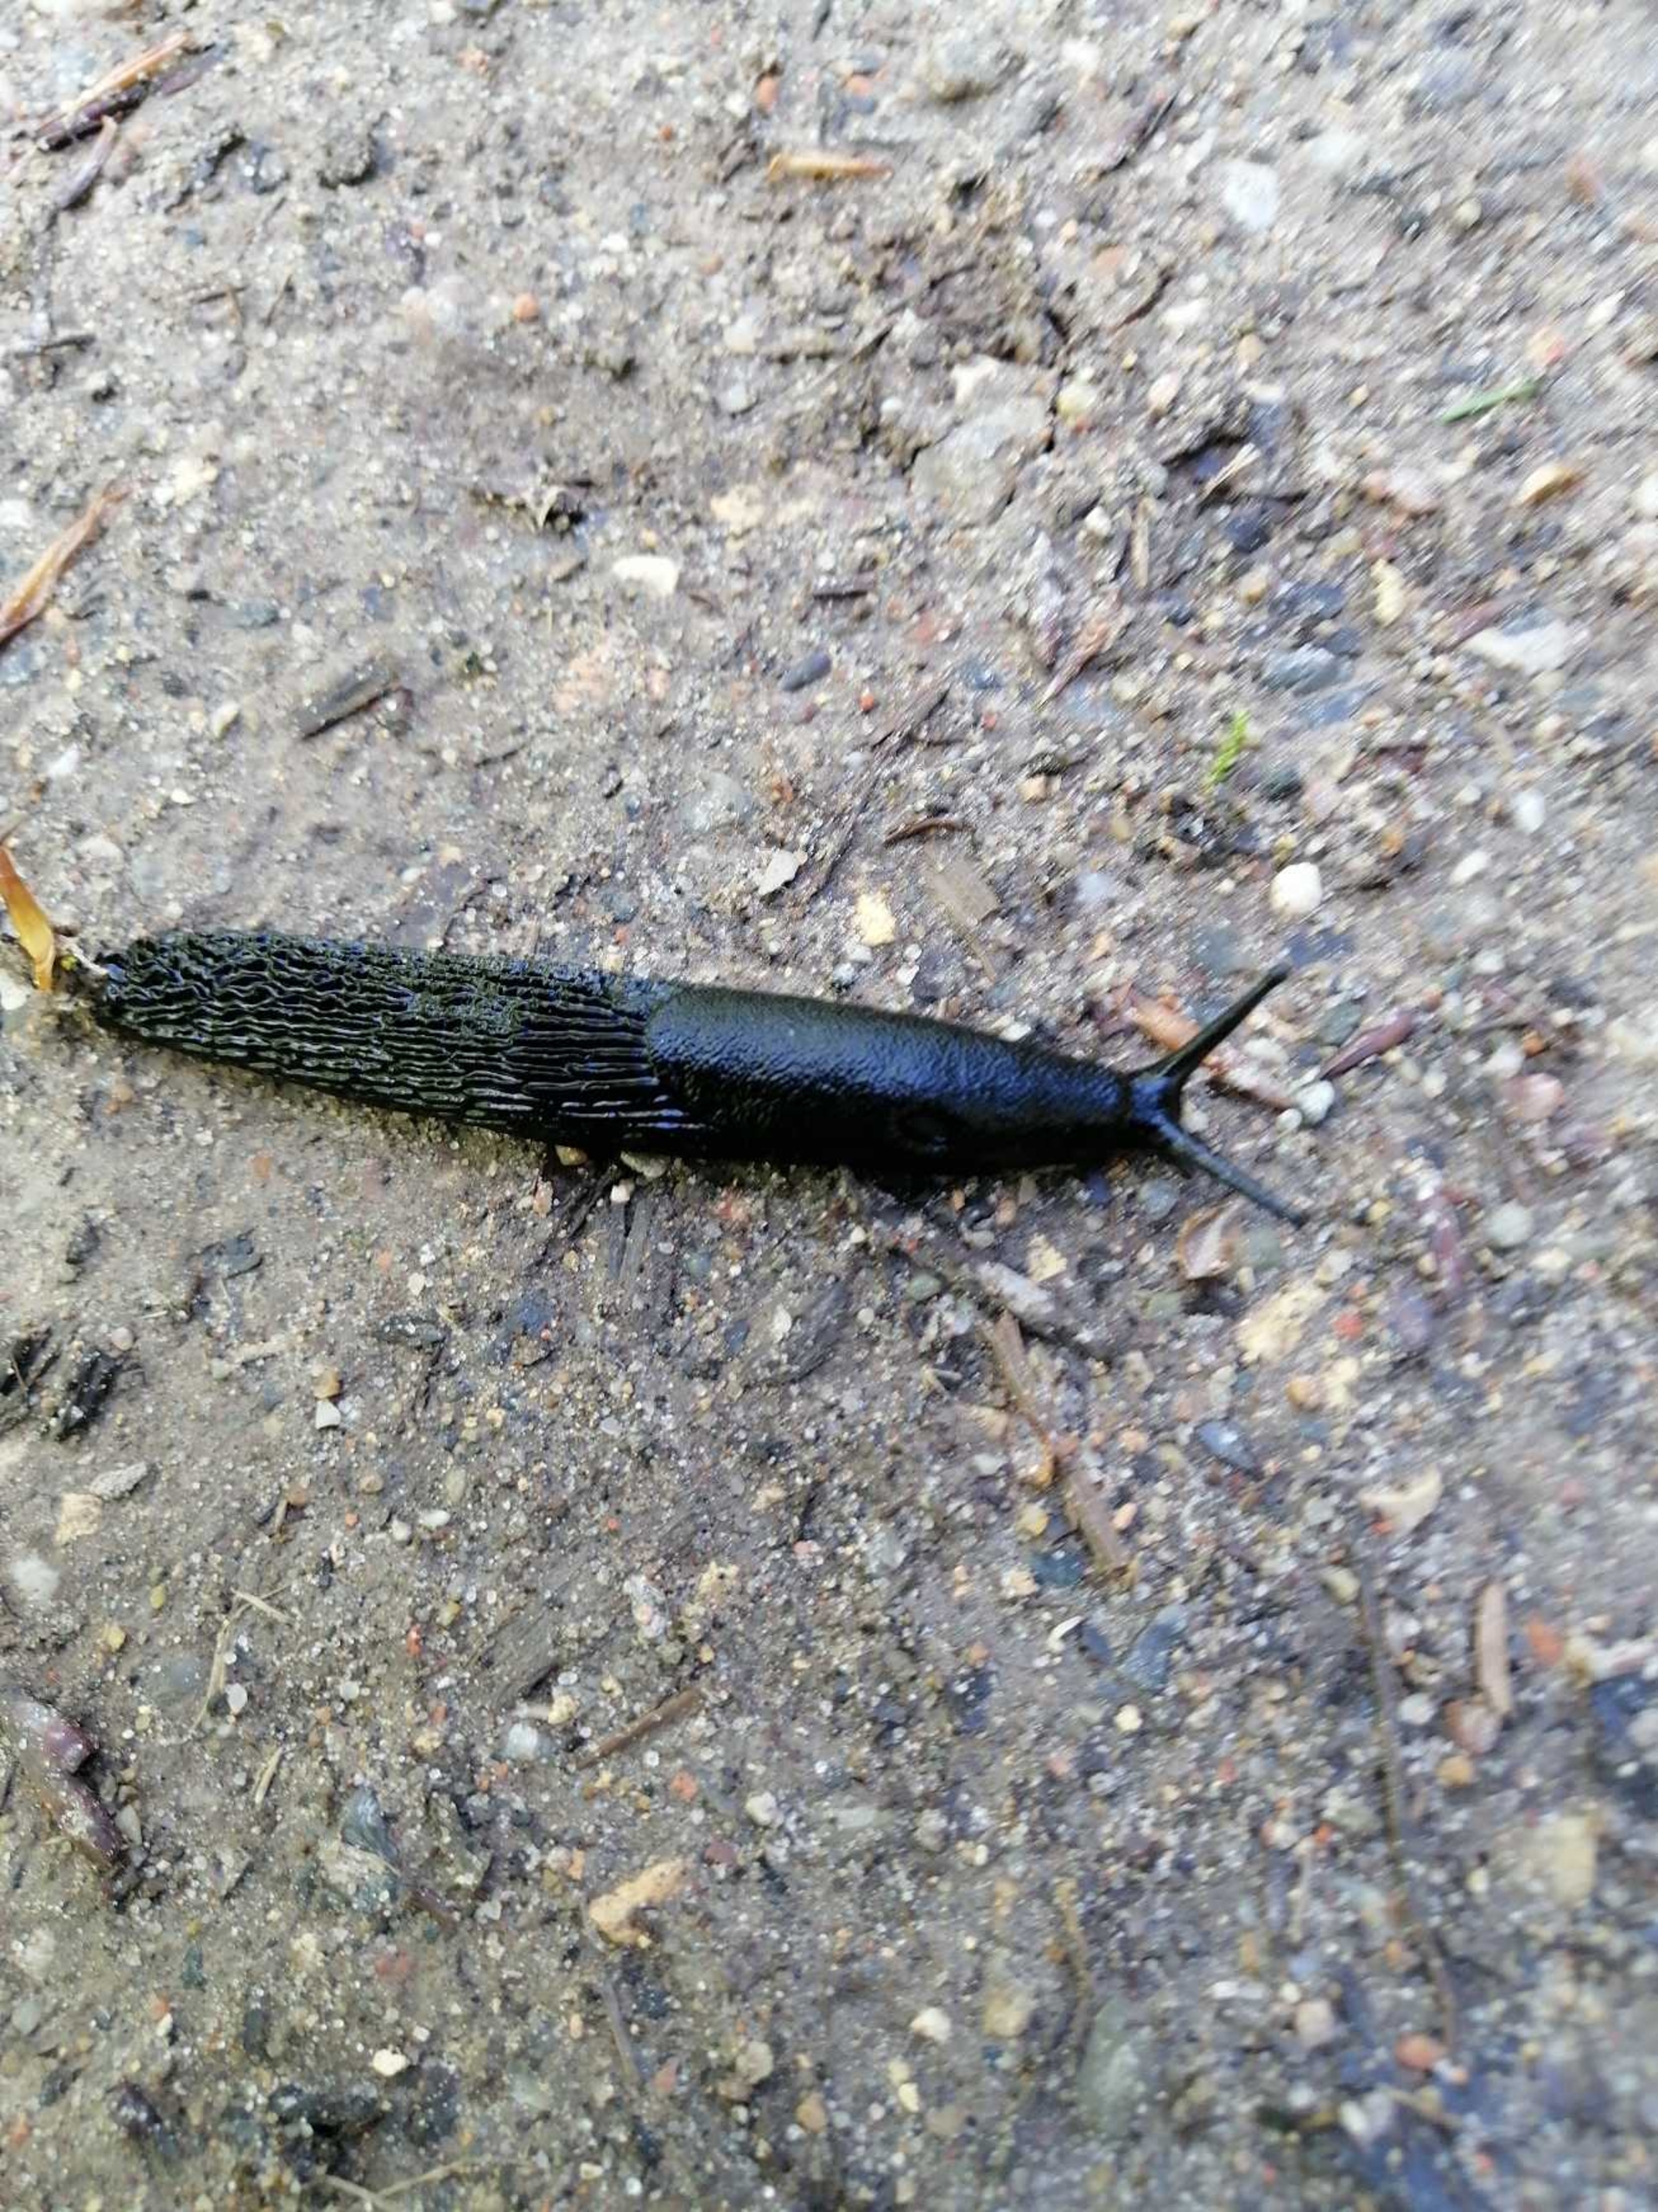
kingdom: Animalia
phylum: Mollusca
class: Gastropoda
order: Stylommatophora
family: Arionidae
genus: Arion
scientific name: Arion ater
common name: Sort skovsnegl
